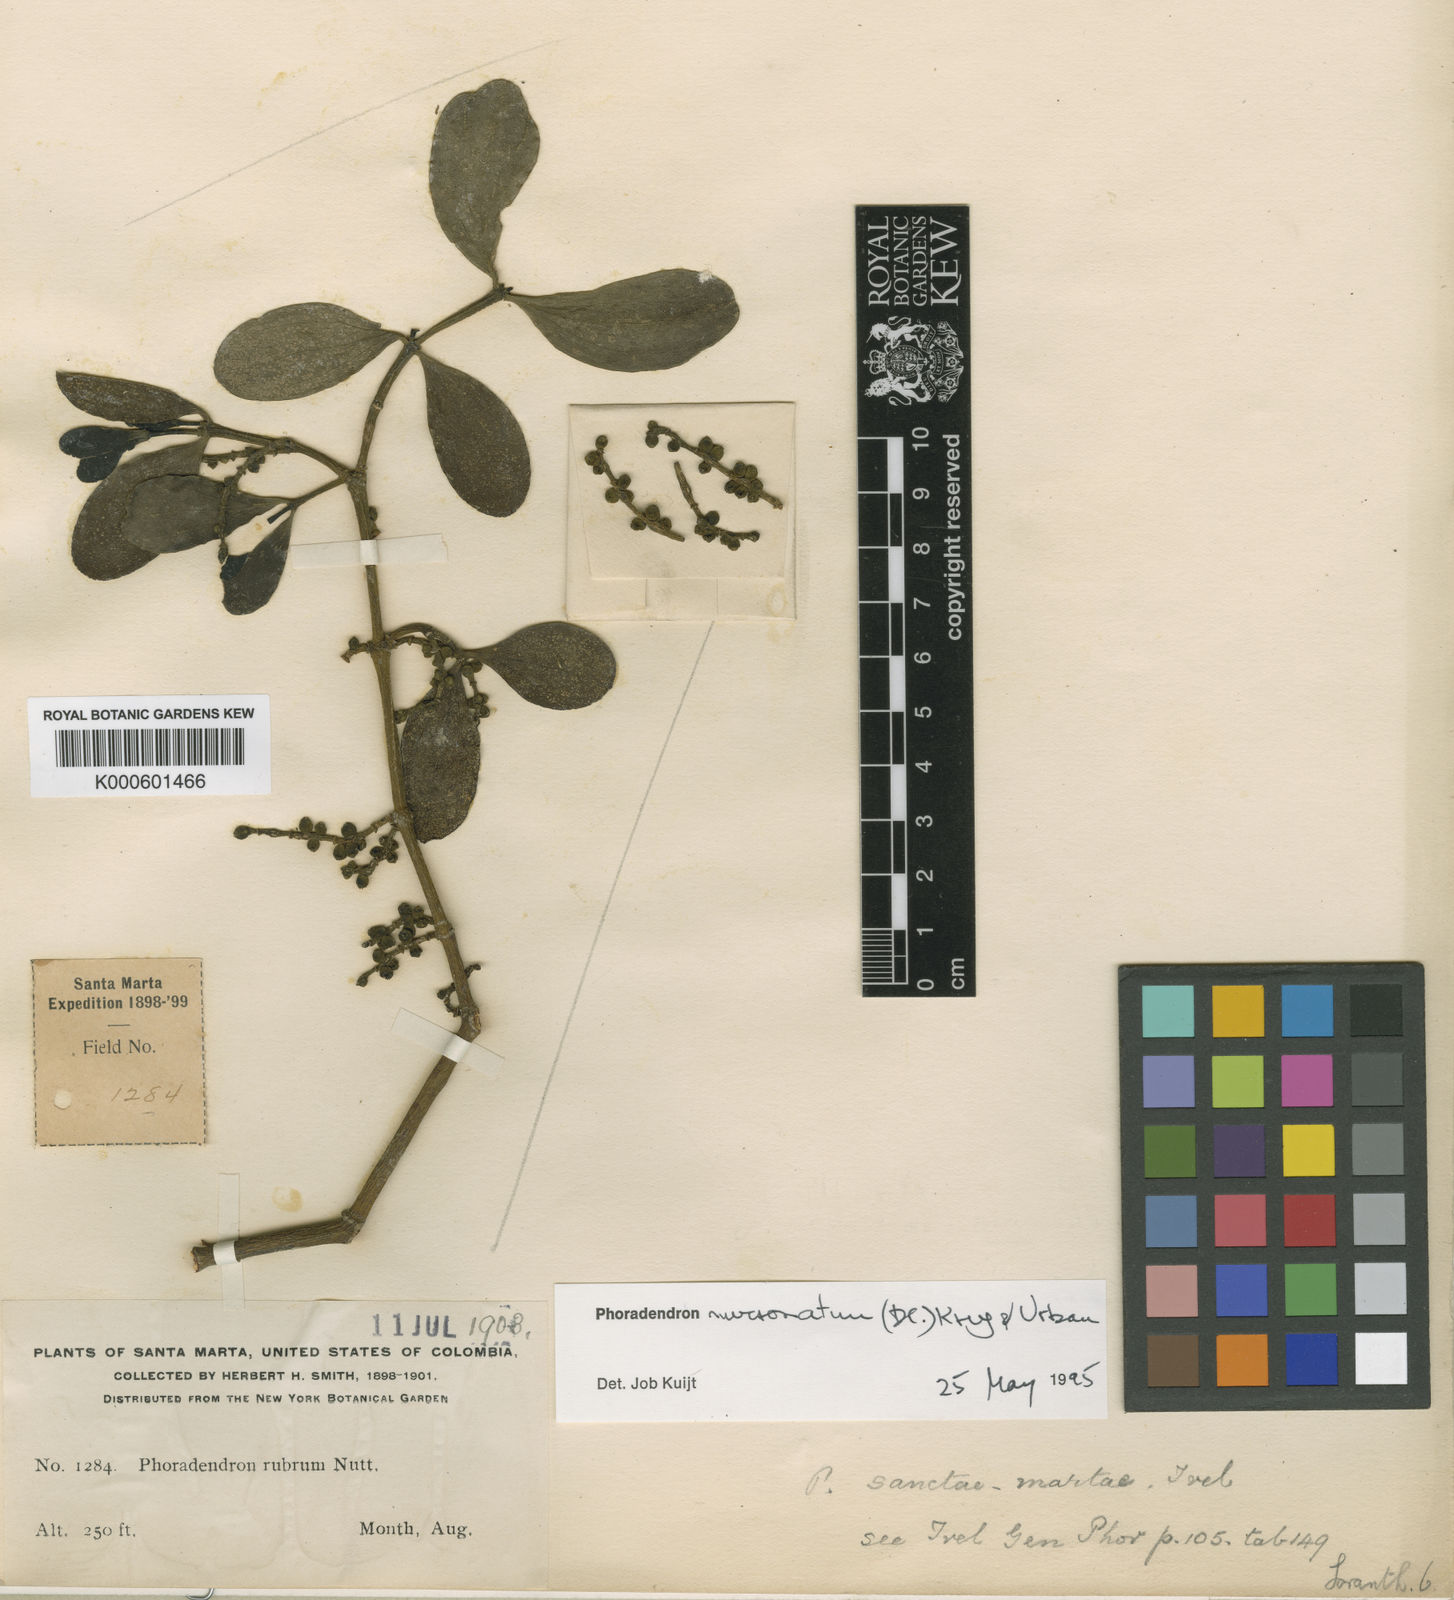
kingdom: Plantae
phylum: Tracheophyta
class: Magnoliopsida
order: Santalales
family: Viscaceae
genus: Phoradendron
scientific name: Phoradendron mucronatum
